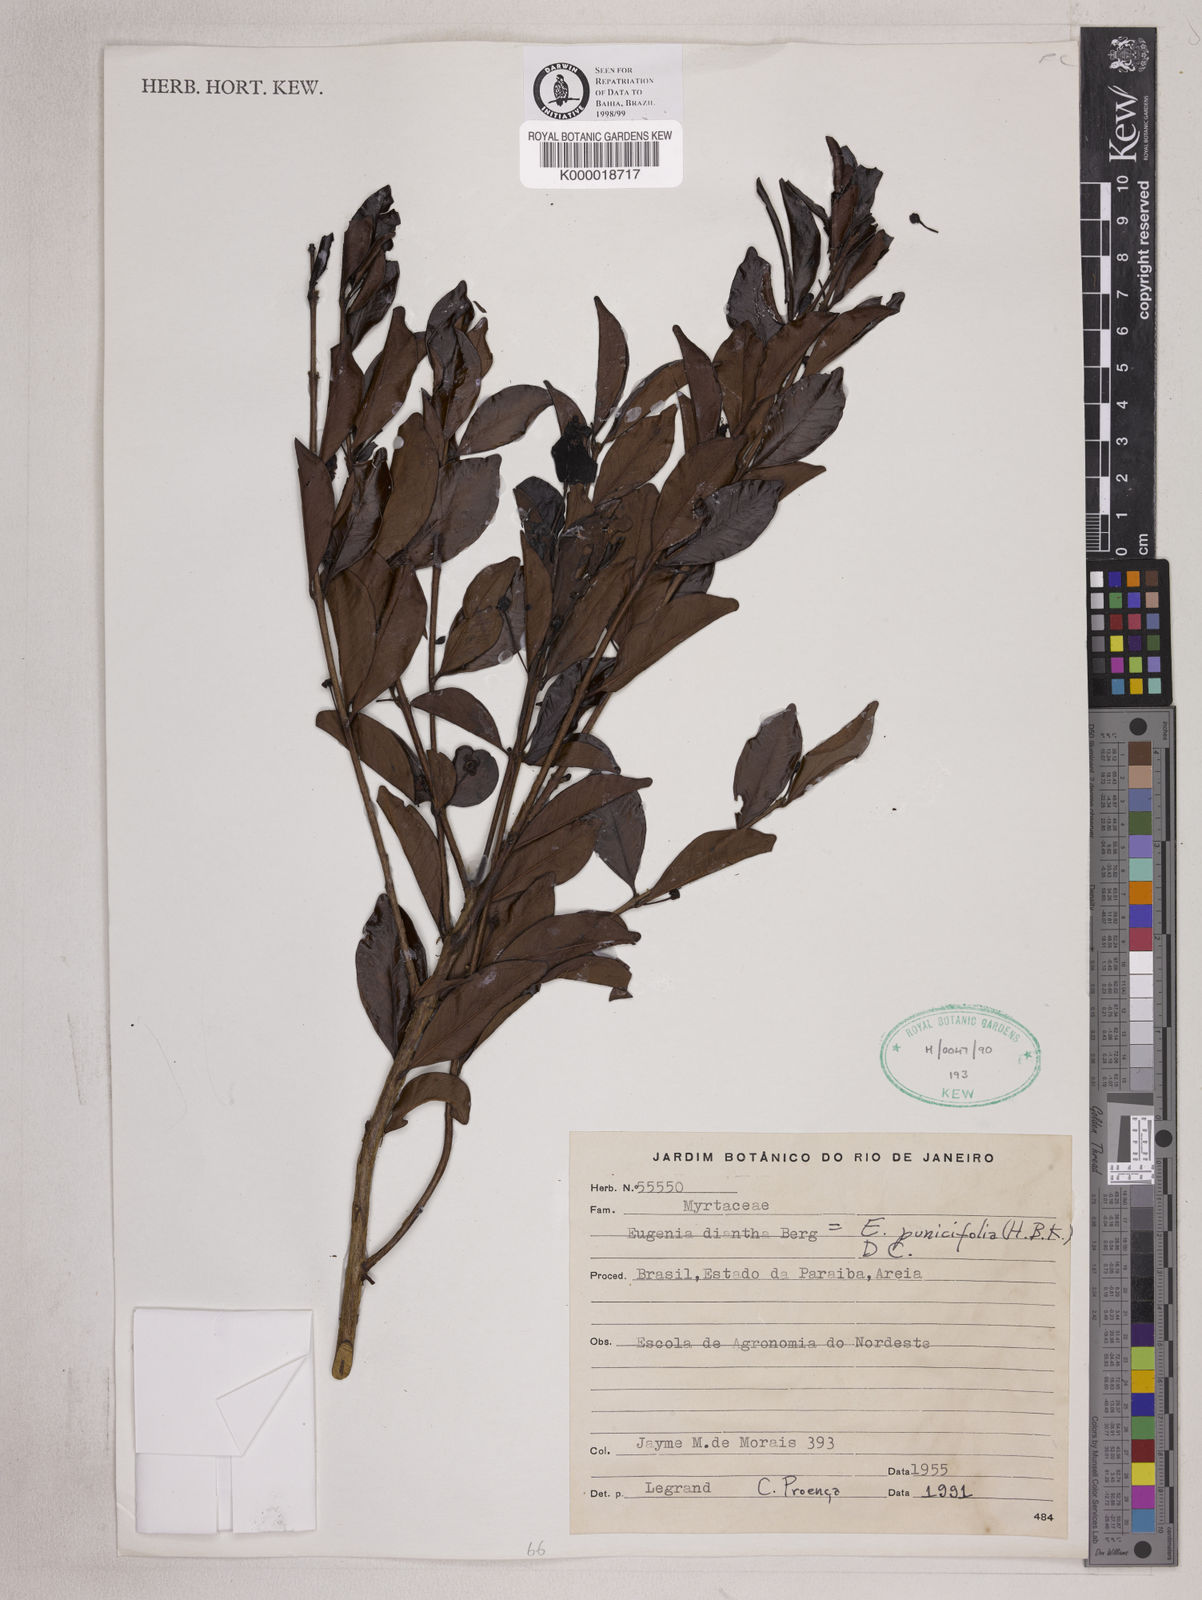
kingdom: Plantae
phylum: Tracheophyta
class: Magnoliopsida
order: Myrtales
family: Myrtaceae
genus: Eugenia
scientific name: Eugenia punicifolia
